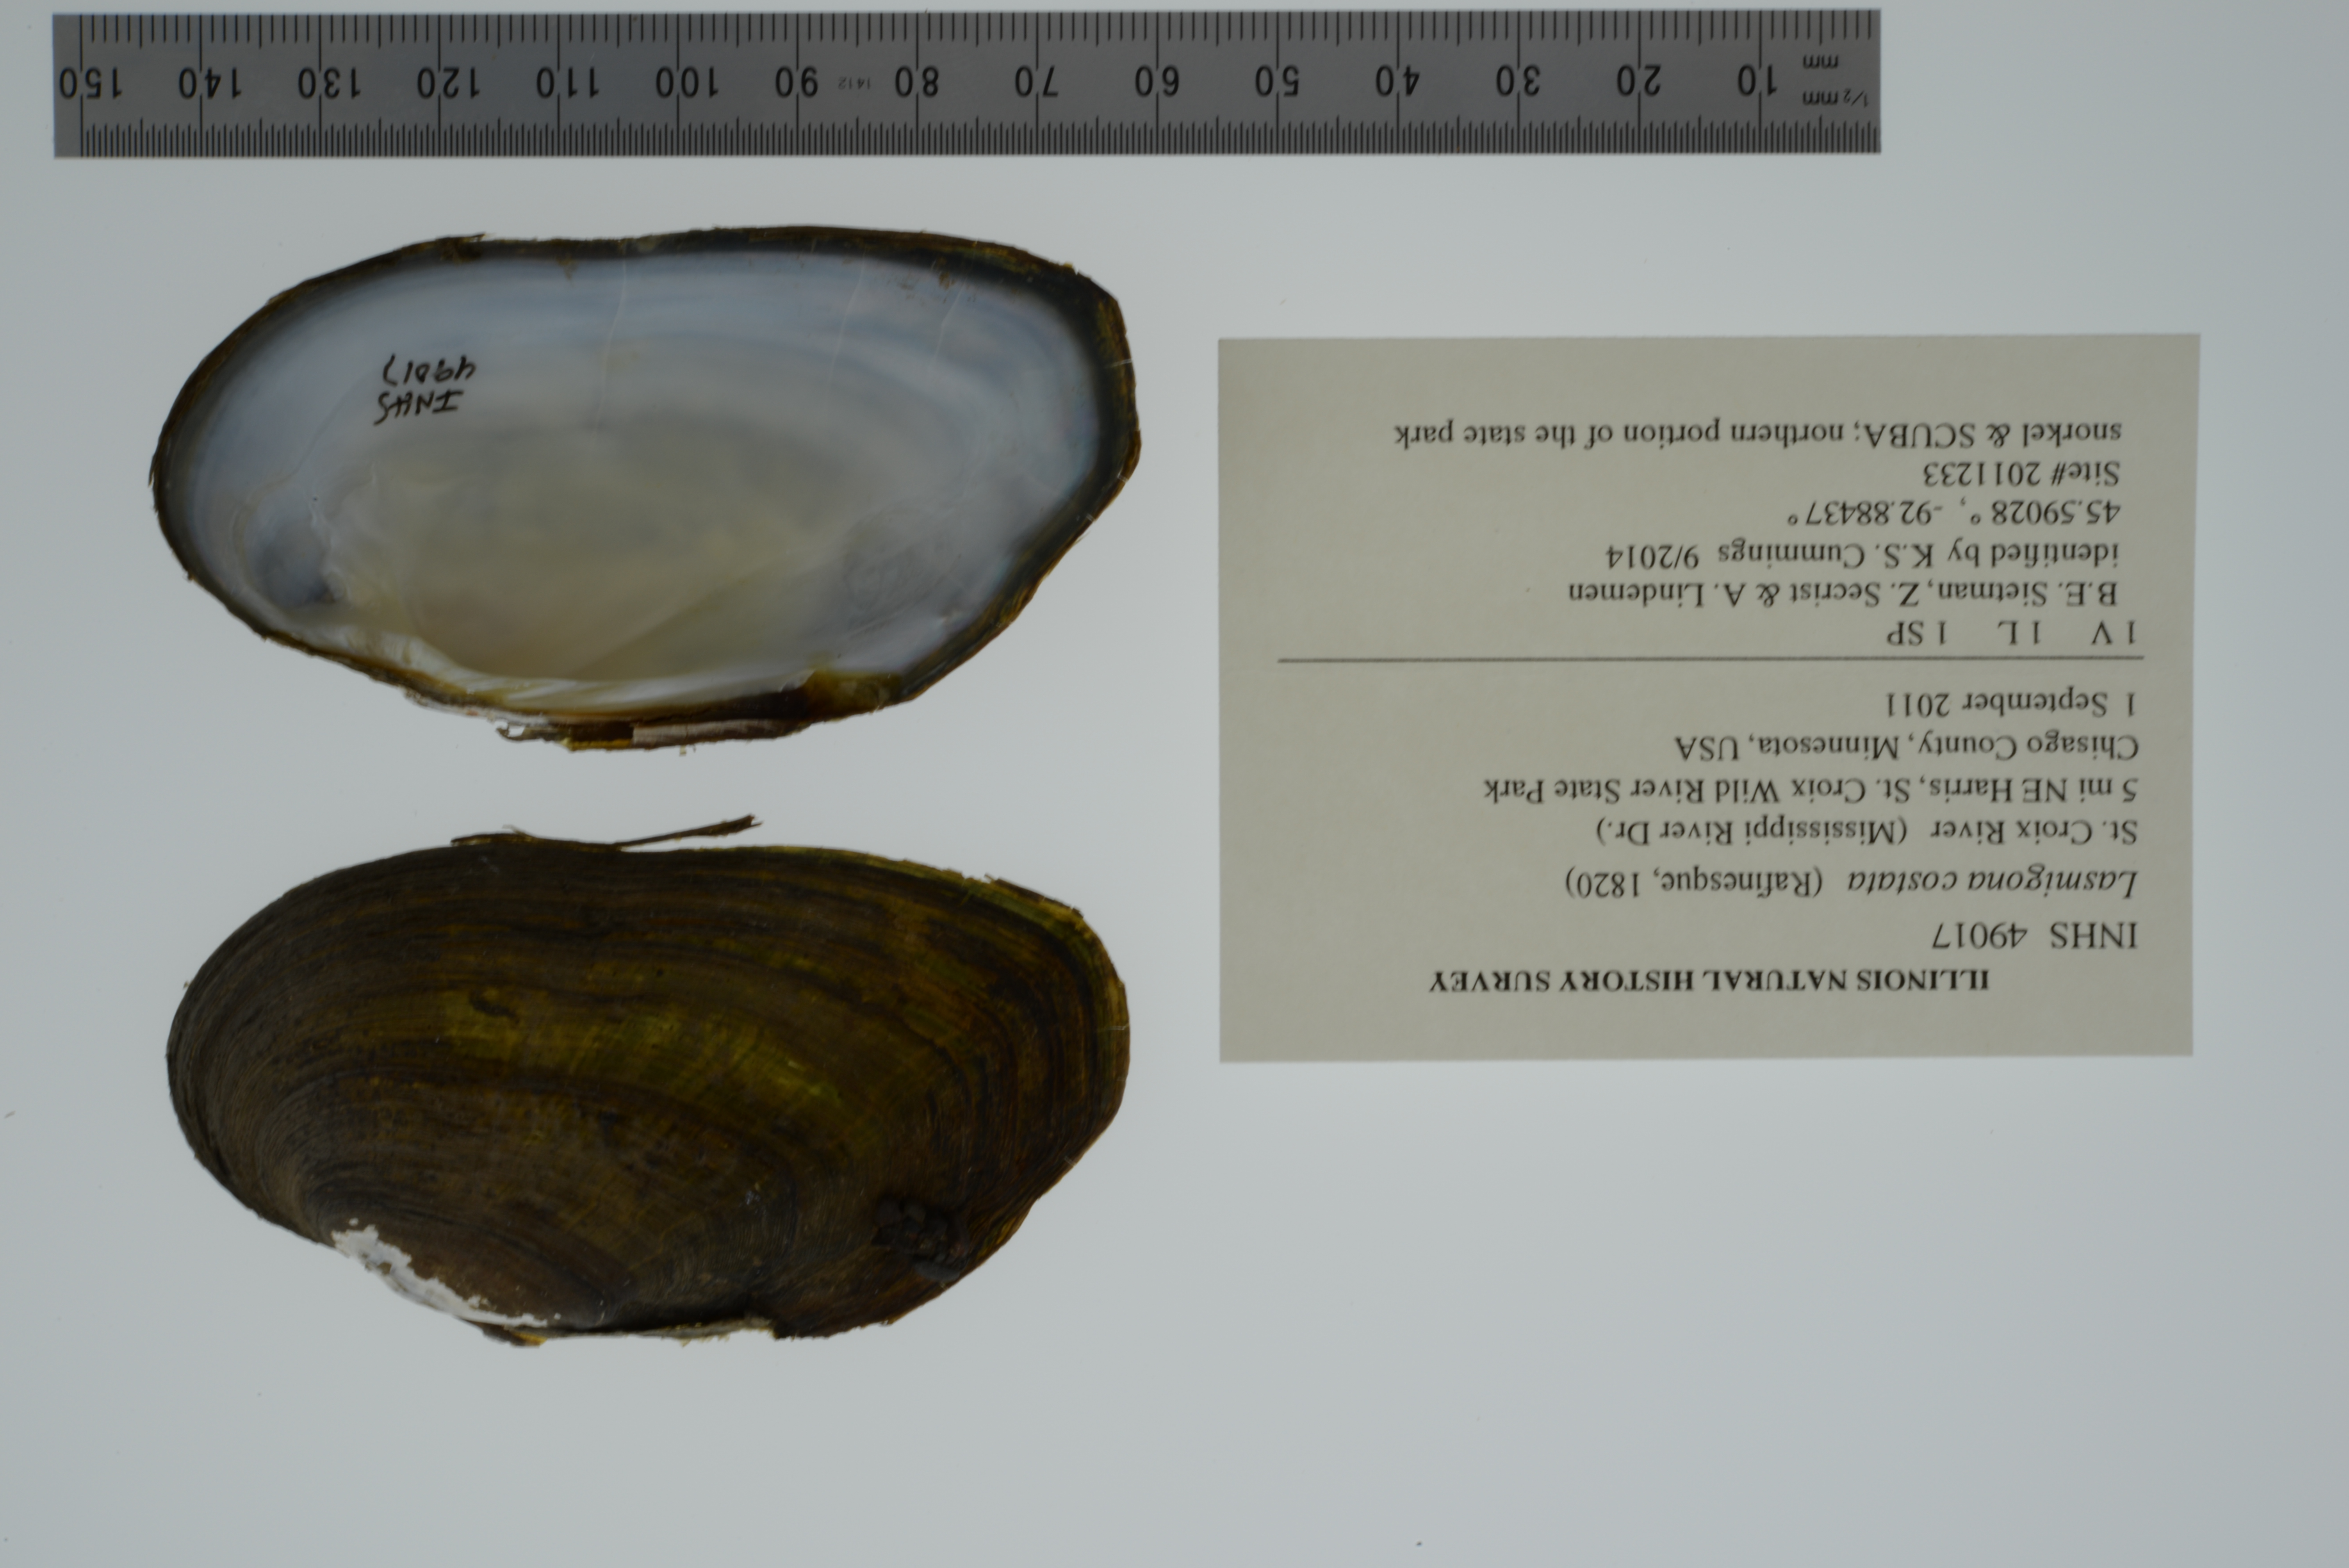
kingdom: Animalia
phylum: Mollusca
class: Bivalvia
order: Unionida
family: Unionidae
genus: Lasmigona
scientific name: Lasmigona costata
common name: Flutedshell
